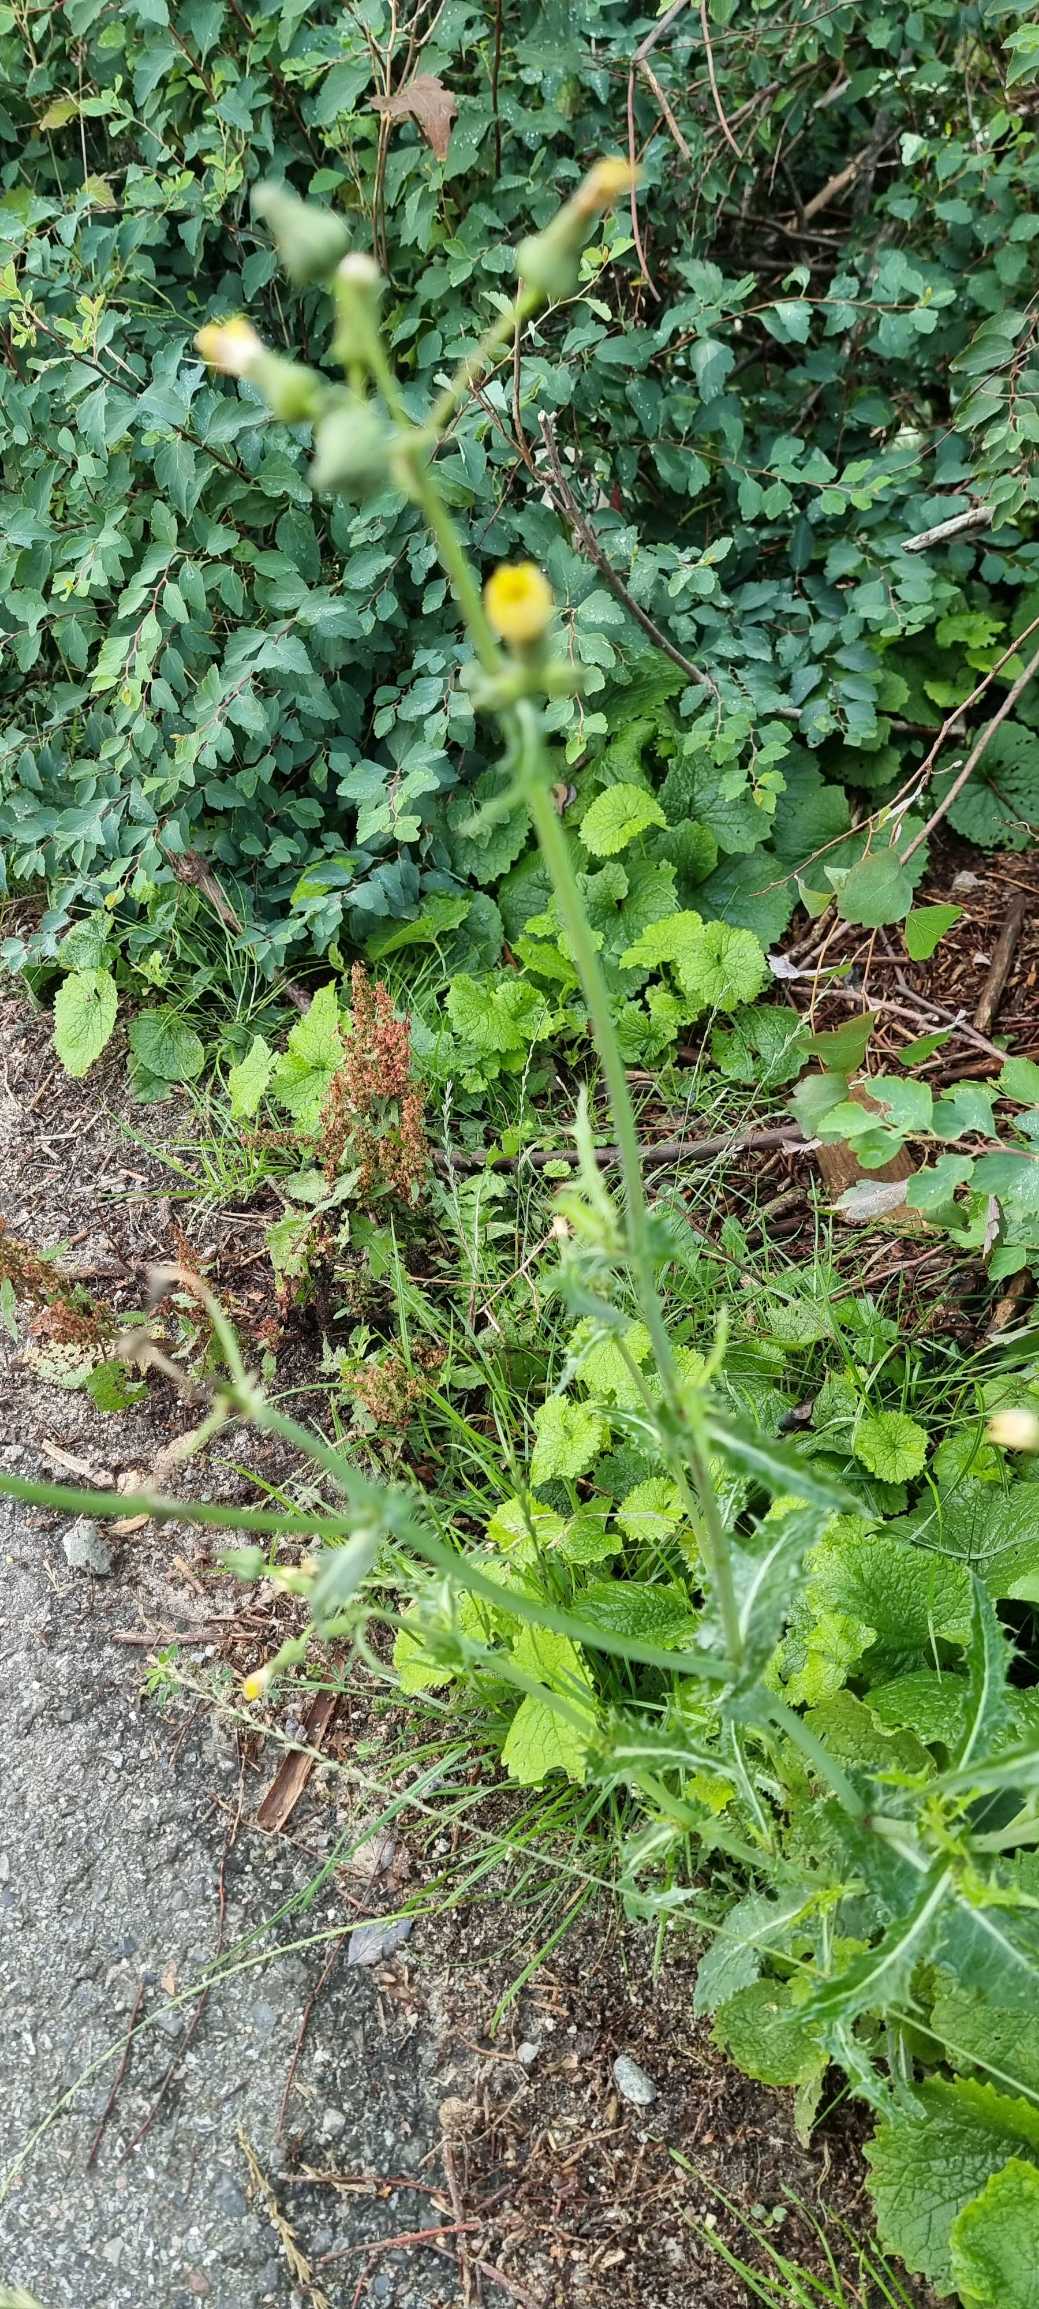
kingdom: Plantae
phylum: Tracheophyta
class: Magnoliopsida
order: Brassicales
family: Brassicaceae
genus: Alliaria
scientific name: Alliaria petiolata
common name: Løgkarse
